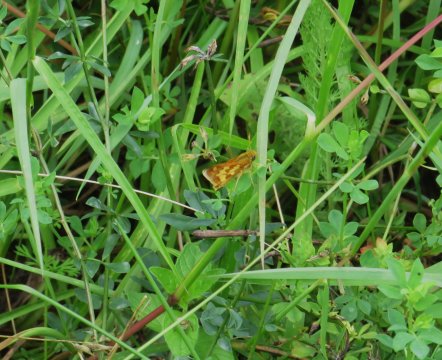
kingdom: Animalia
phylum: Arthropoda
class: Insecta
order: Lepidoptera
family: Hesperiidae
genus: Polites
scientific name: Polites coras
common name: Peck's Skipper
